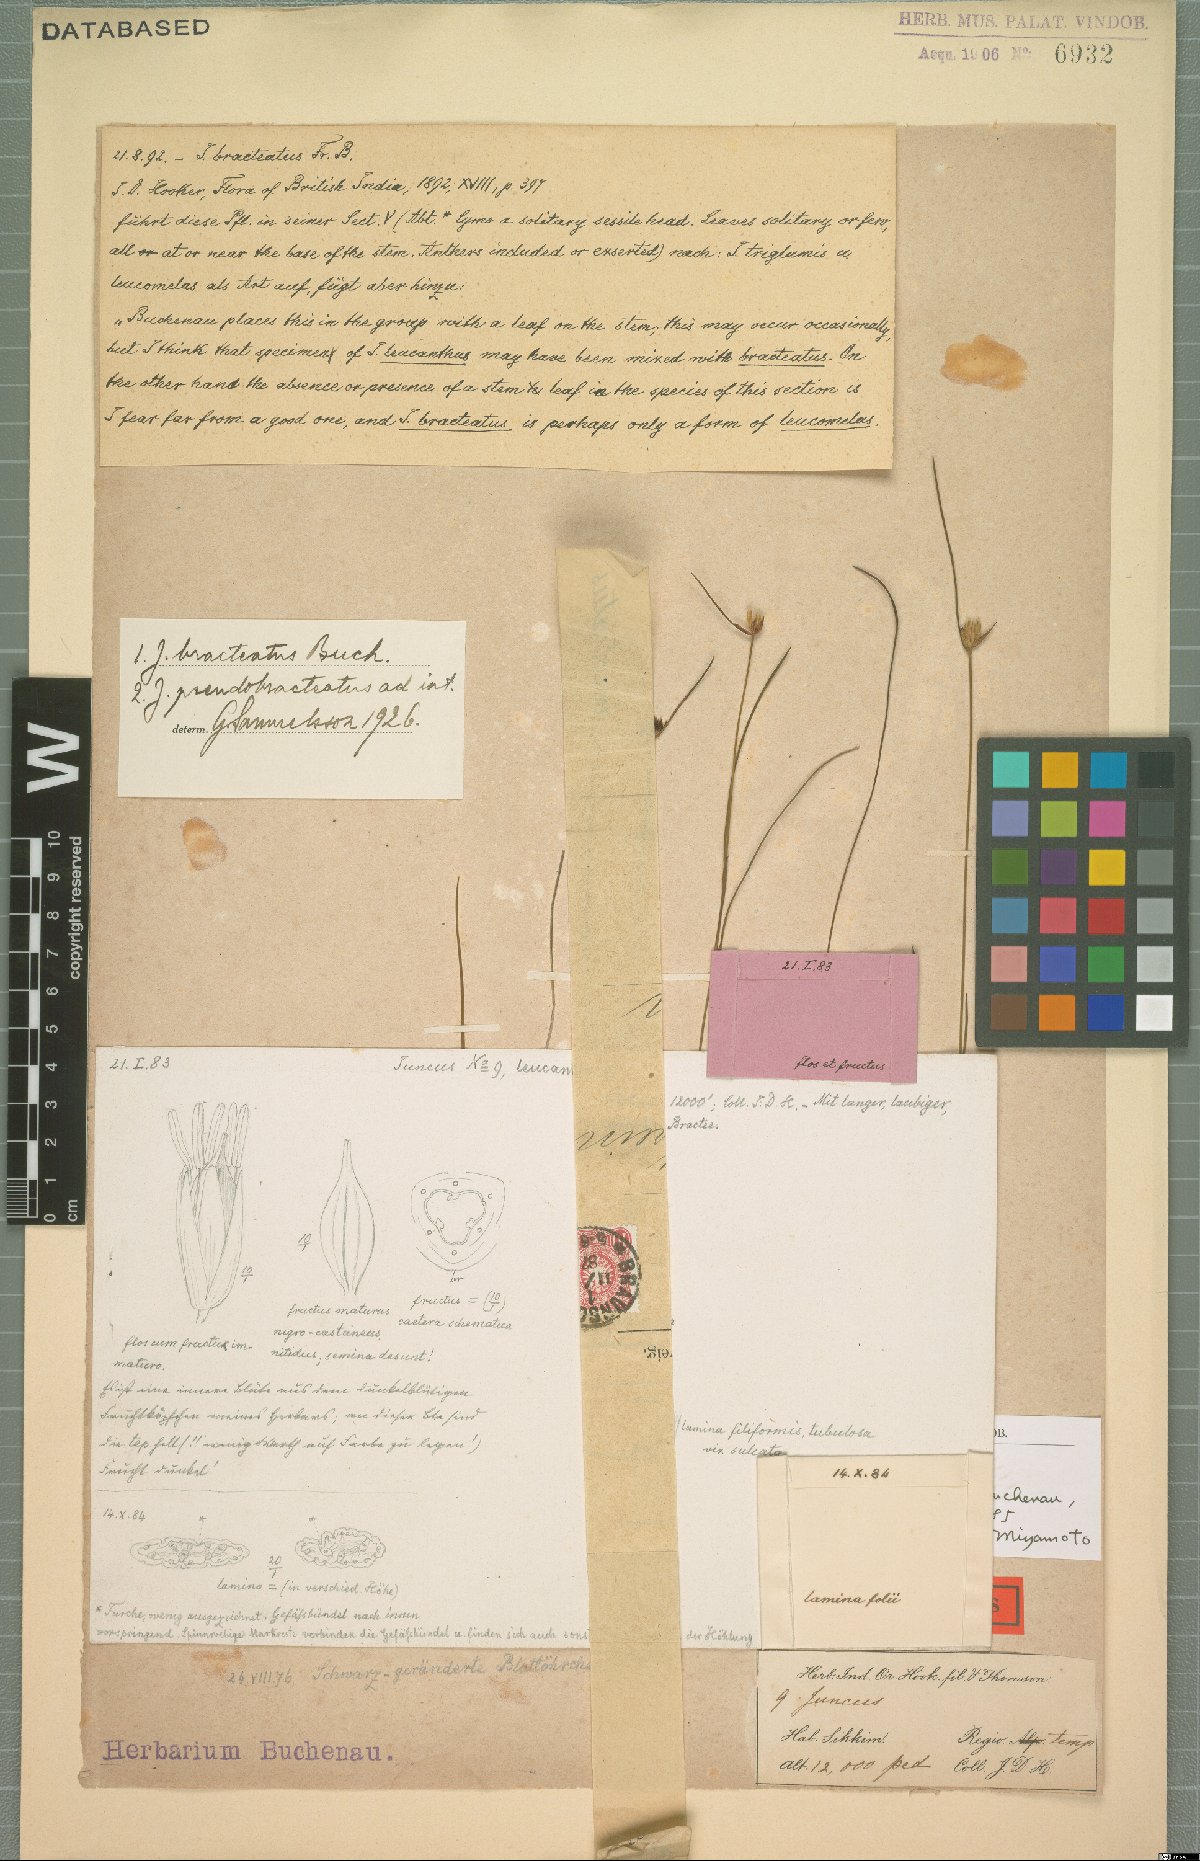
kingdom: Plantae
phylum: Tracheophyta
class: Liliopsida
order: Poales
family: Juncaceae
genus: Juncus
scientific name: Juncus benghalensis
